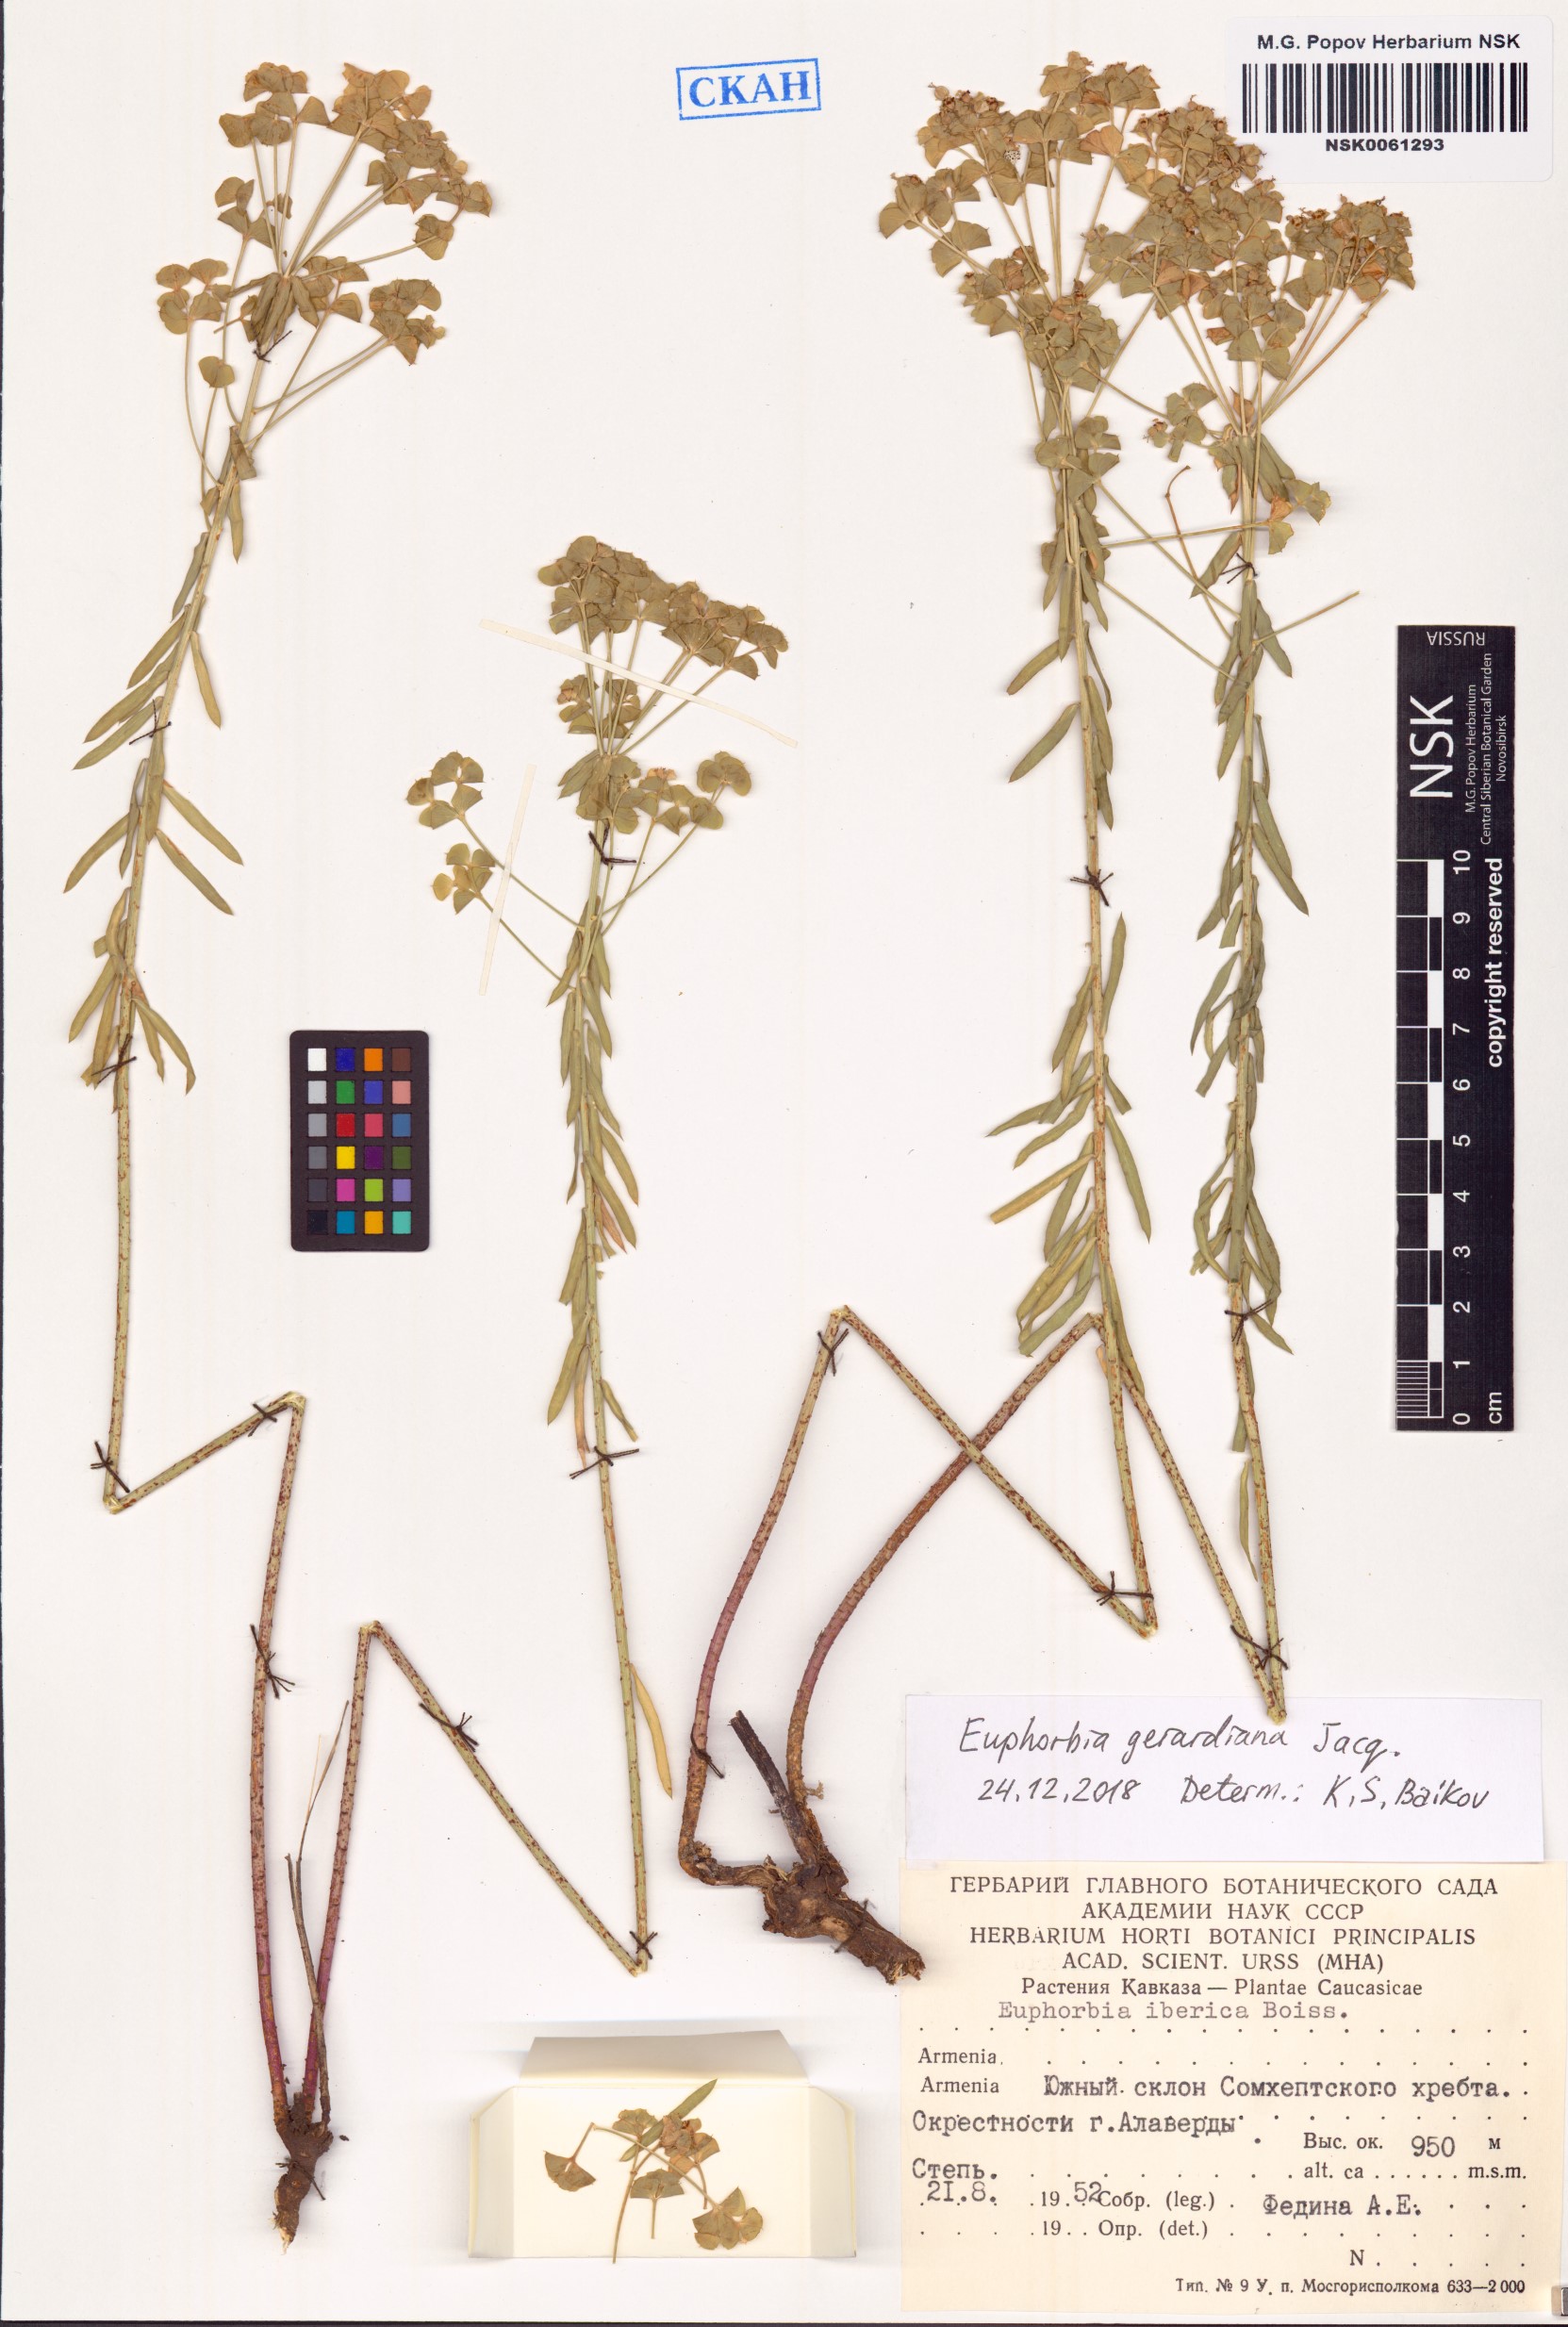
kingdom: Plantae
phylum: Tracheophyta
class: Magnoliopsida
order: Malpighiales
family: Euphorbiaceae
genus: Euphorbia
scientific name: Euphorbia seguieriana
